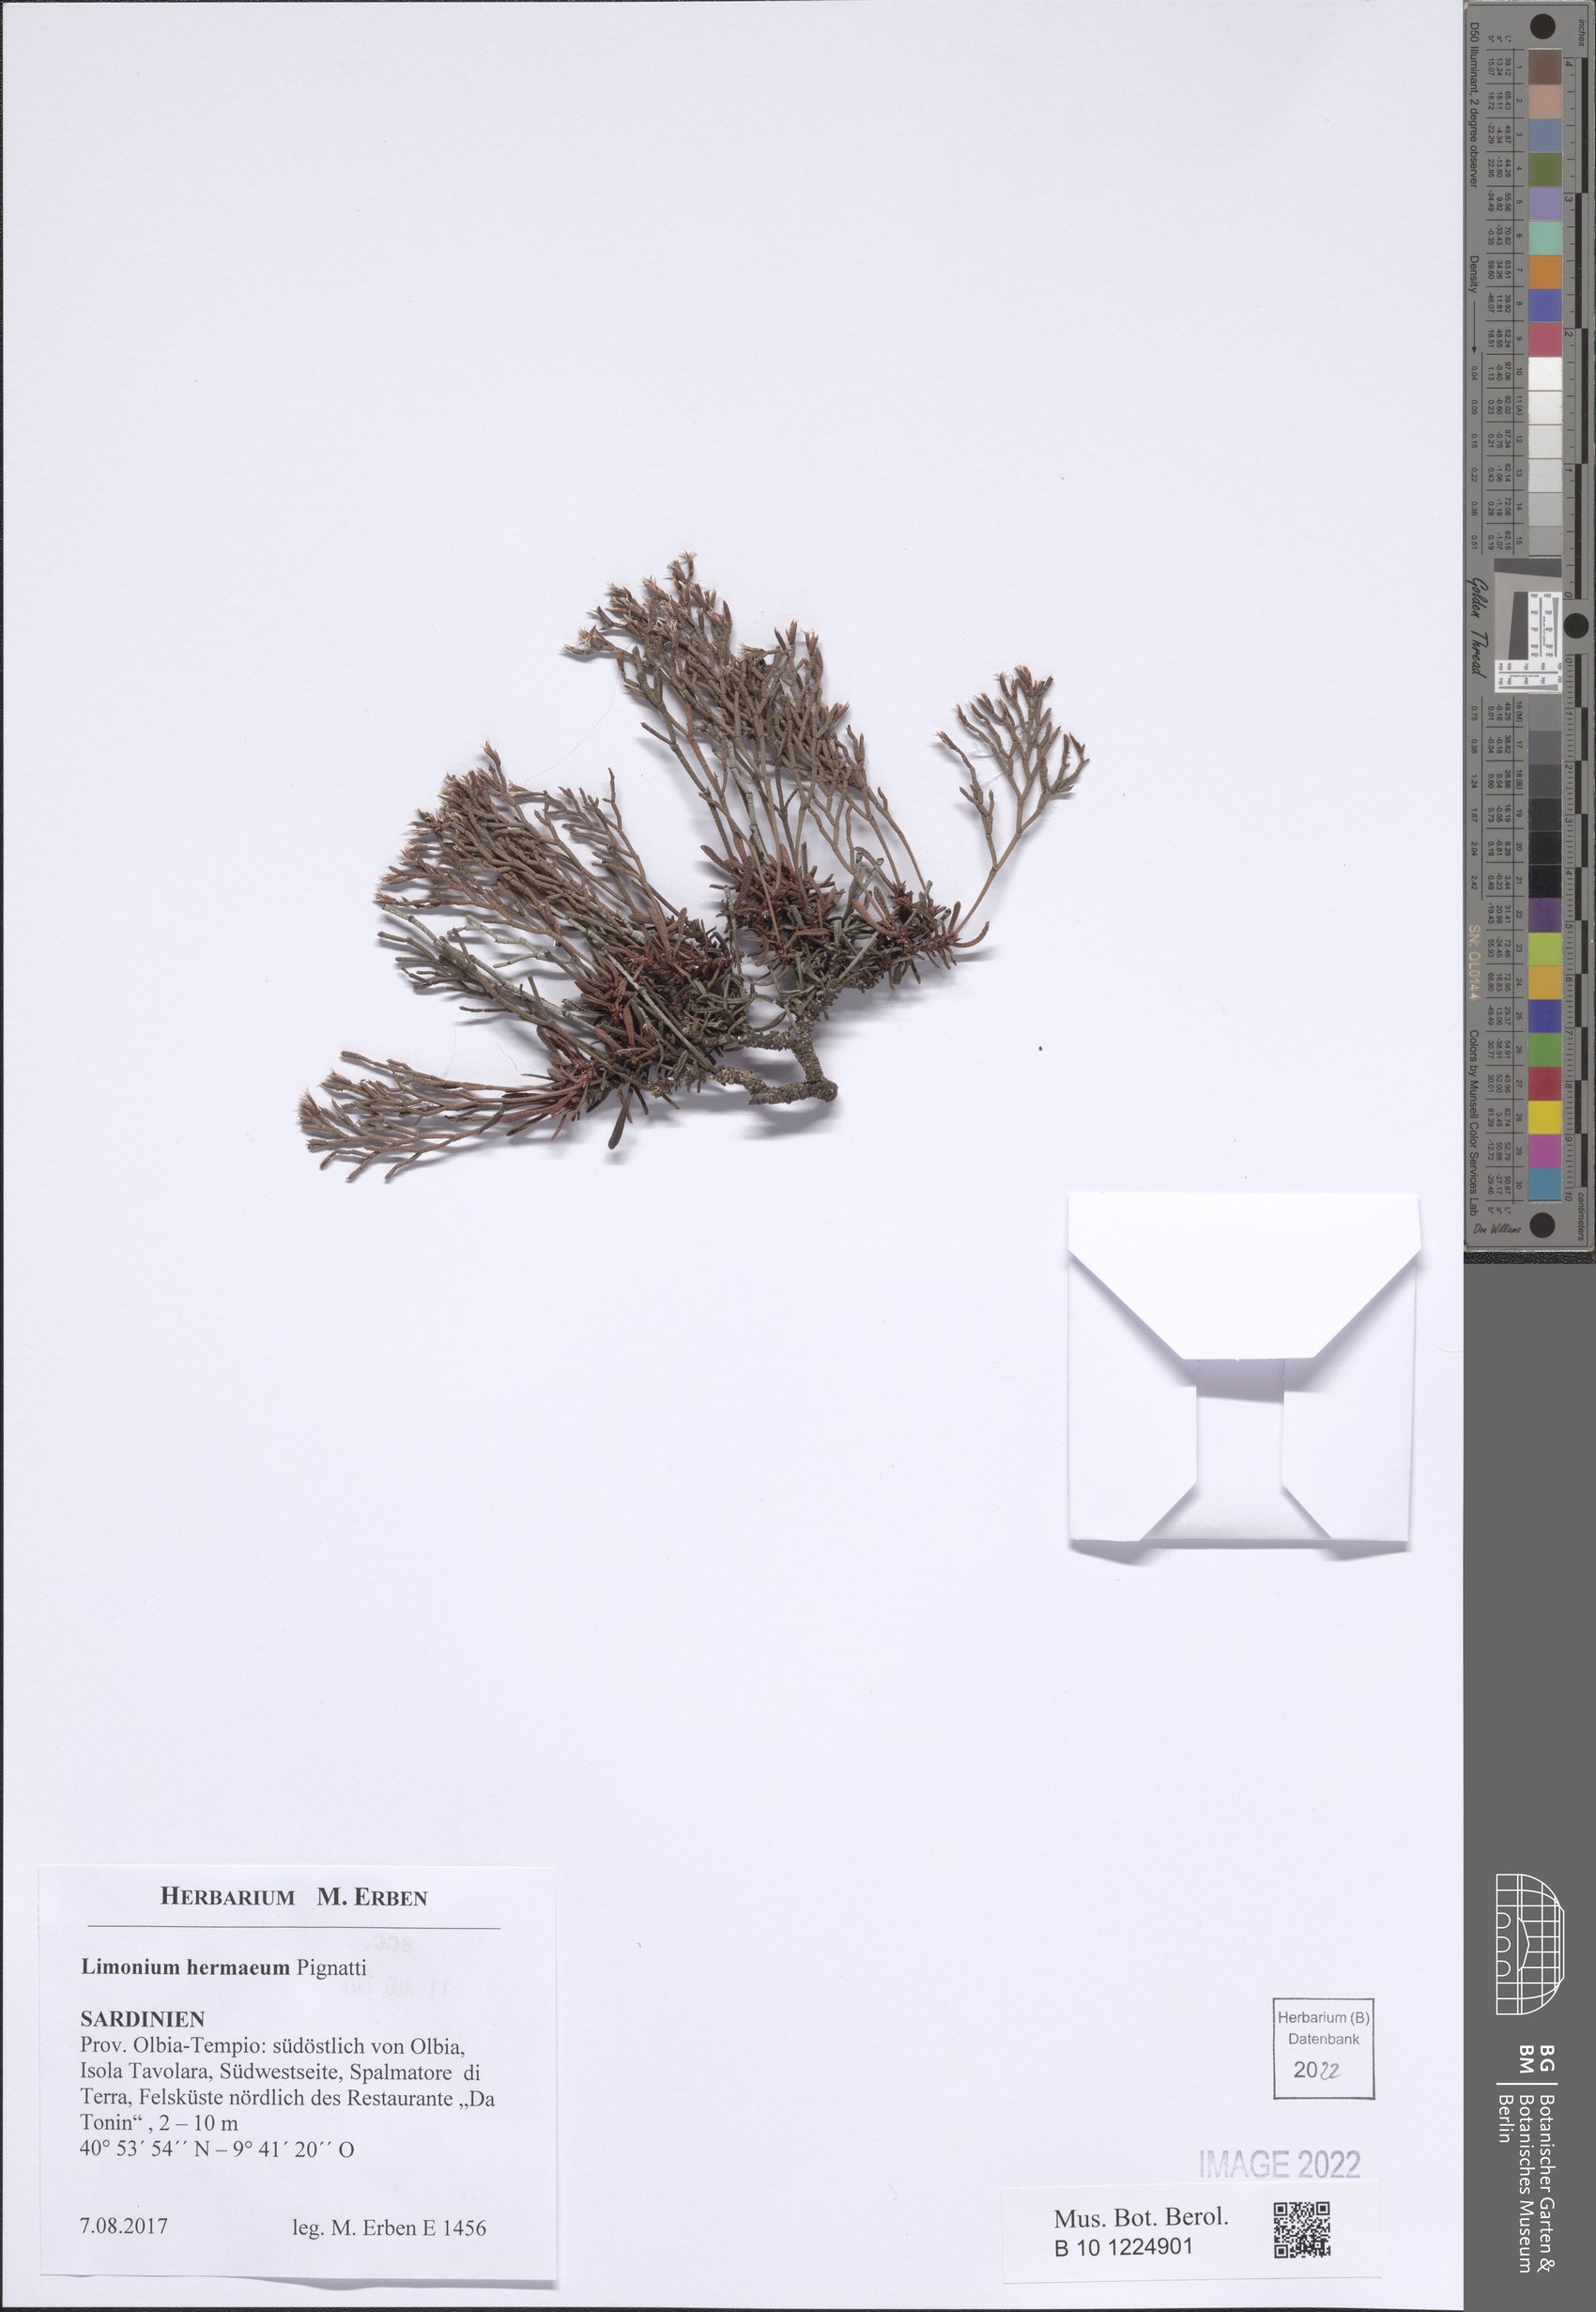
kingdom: Plantae
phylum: Tracheophyta
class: Magnoliopsida
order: Caryophyllales
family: Plumbaginaceae
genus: Limonium
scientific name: Limonium hermaeum
